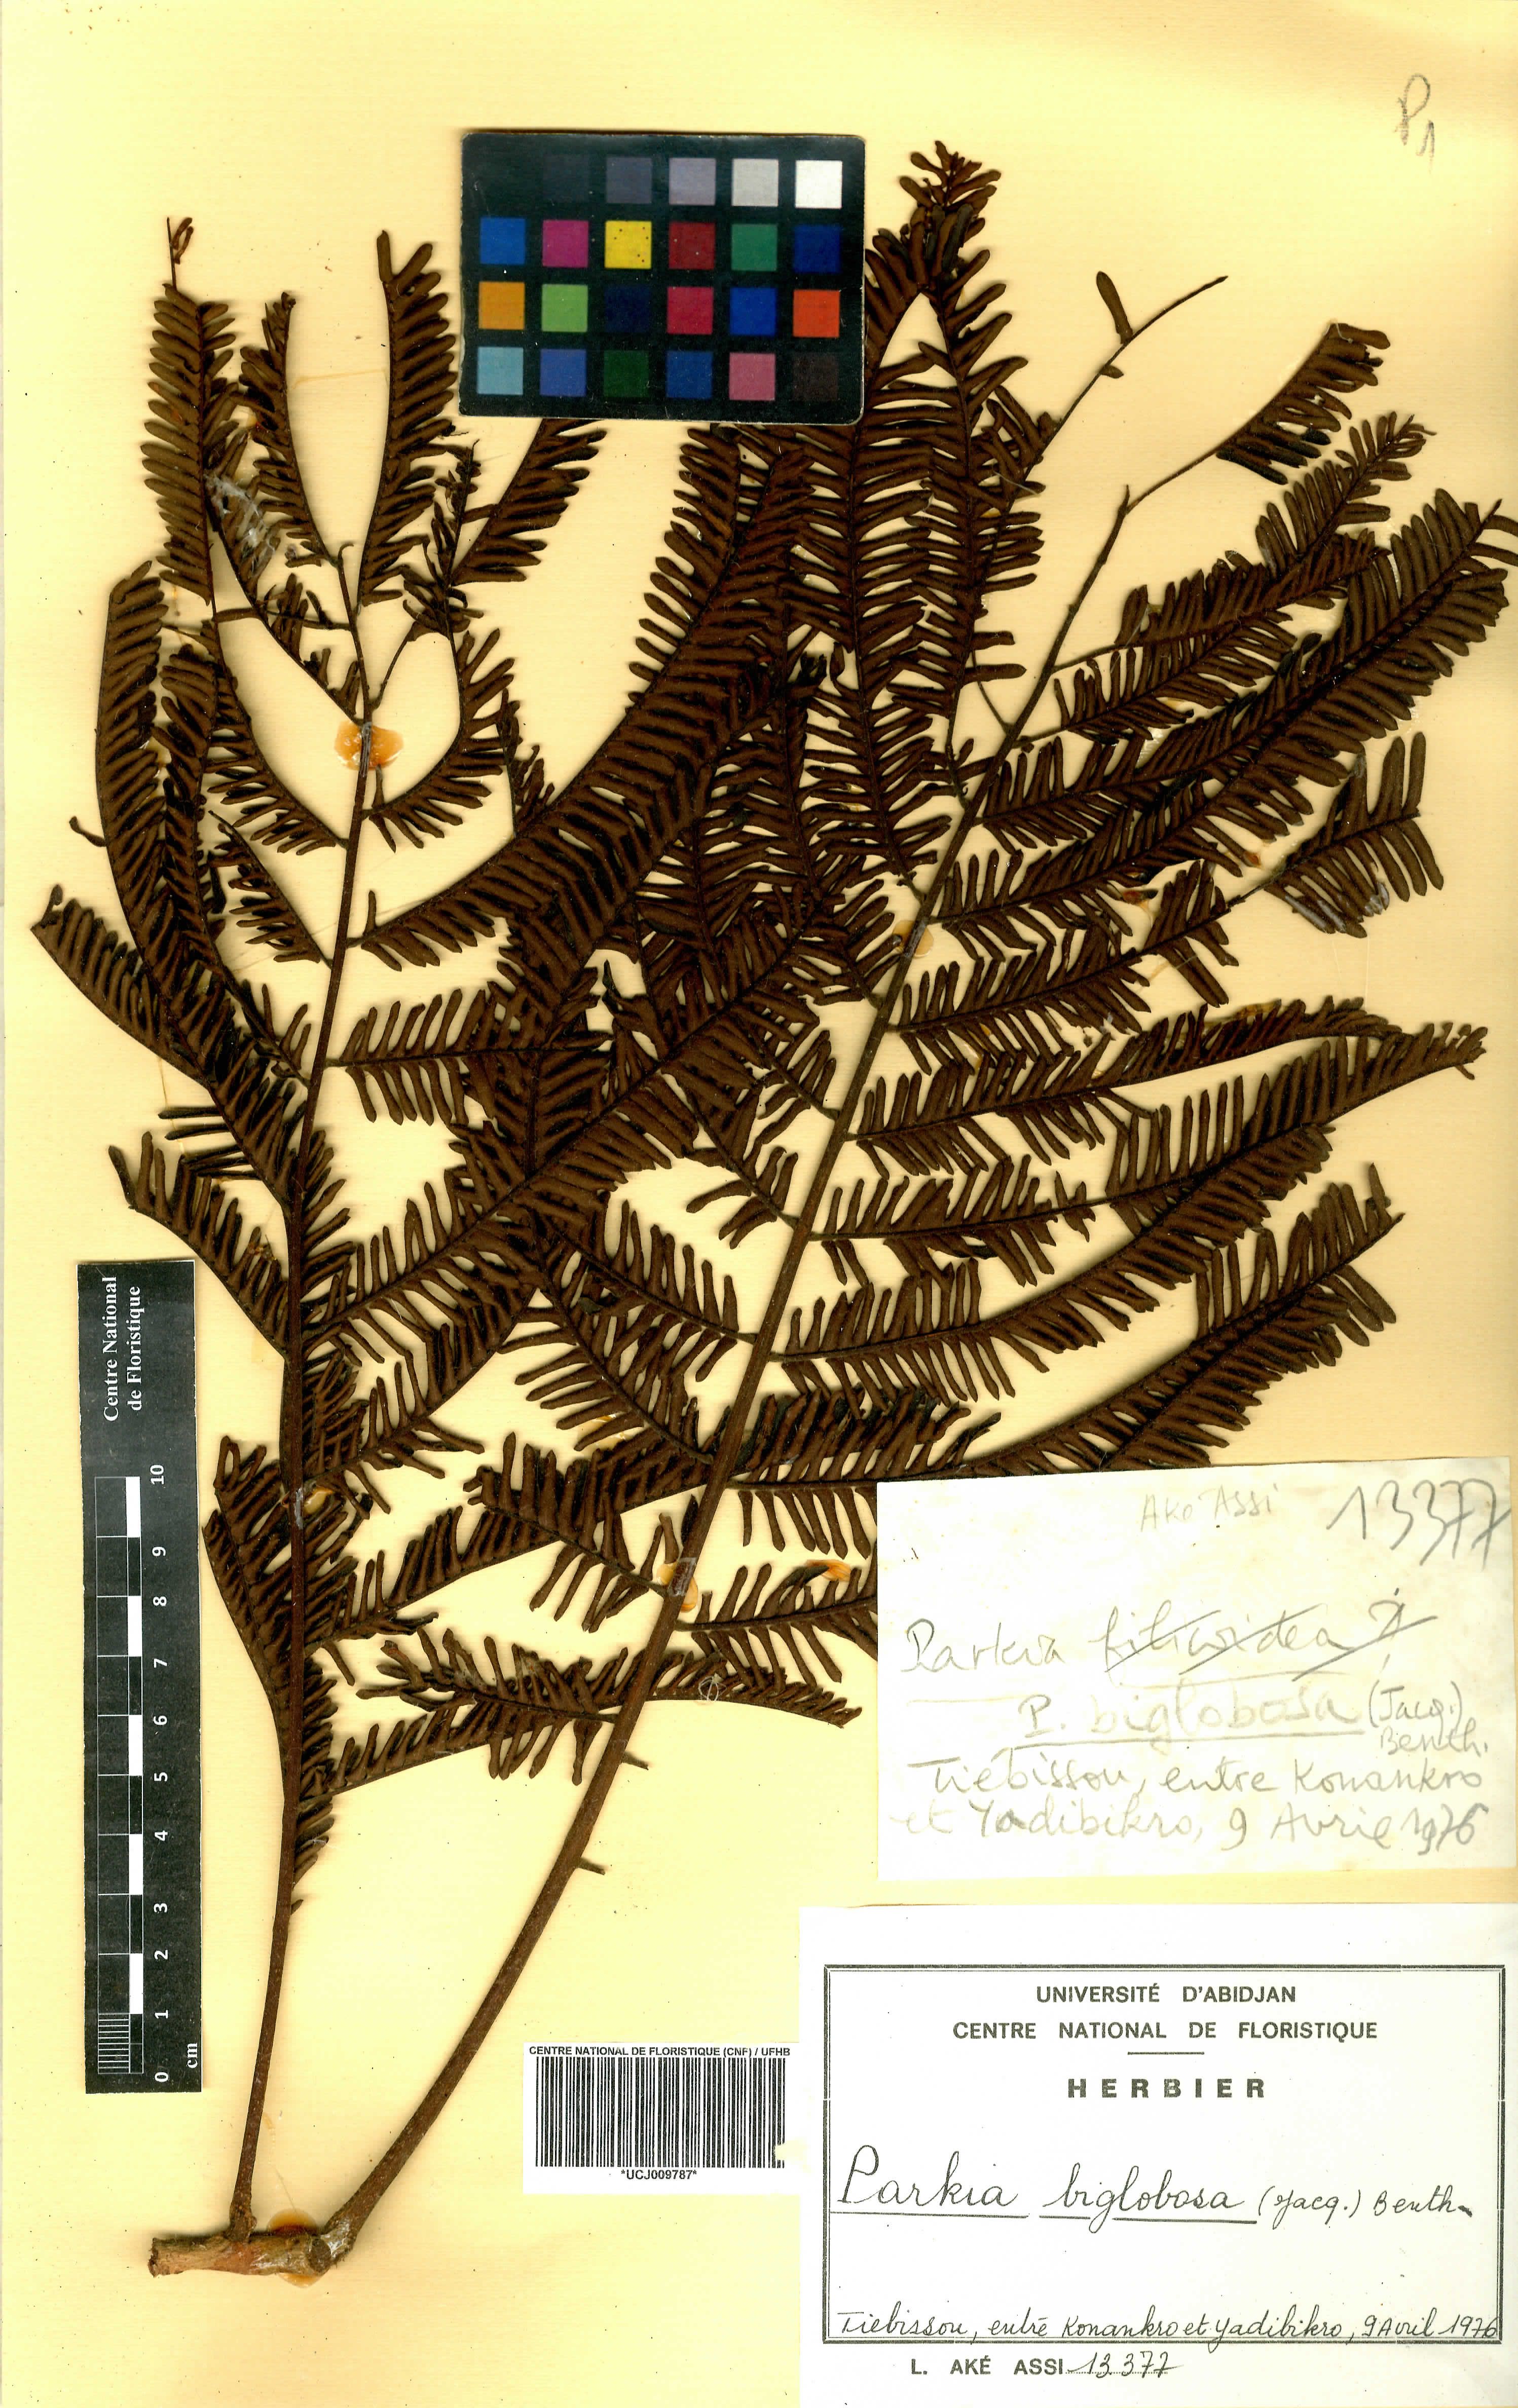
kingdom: Plantae
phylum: Tracheophyta
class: Magnoliopsida
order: Fabales
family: Fabaceae
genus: Parkia
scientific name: Parkia timoriana
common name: Legume
